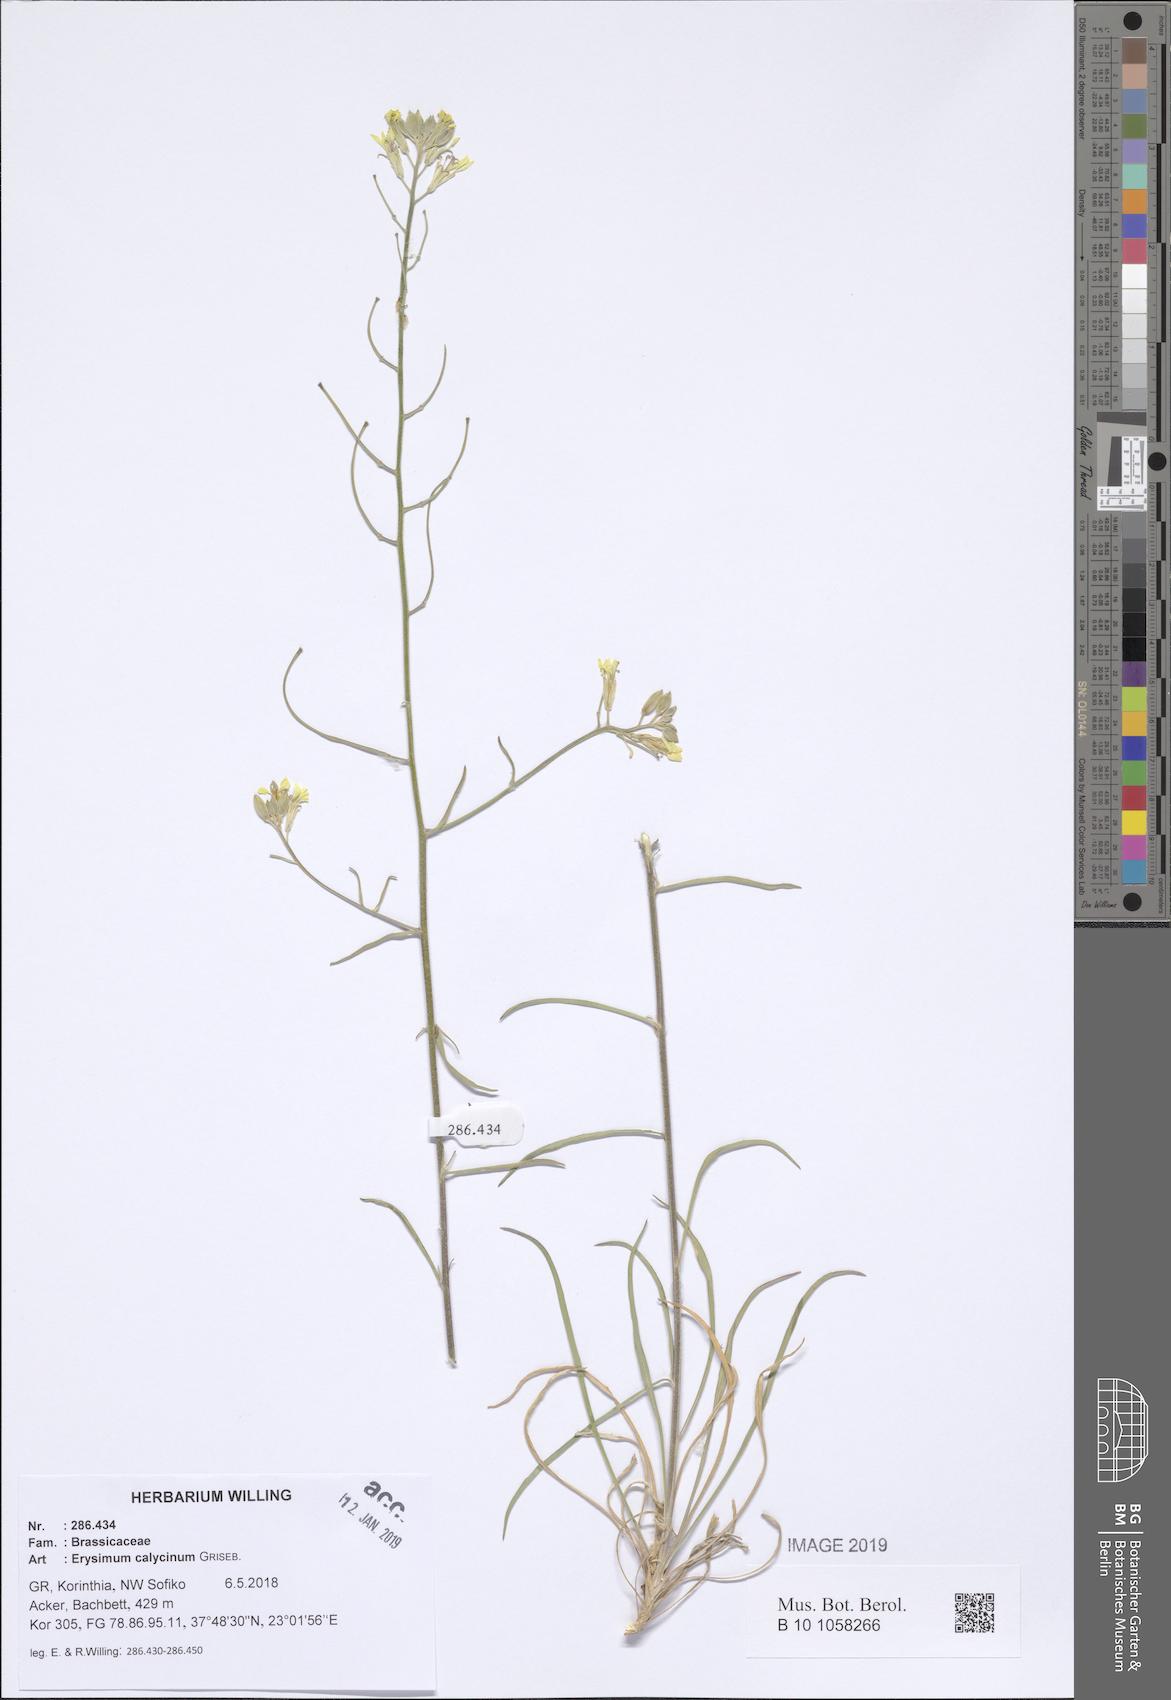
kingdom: Plantae
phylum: Tracheophyta
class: Magnoliopsida
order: Brassicales
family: Brassicaceae
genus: Erysimum
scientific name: Erysimum calycinum
